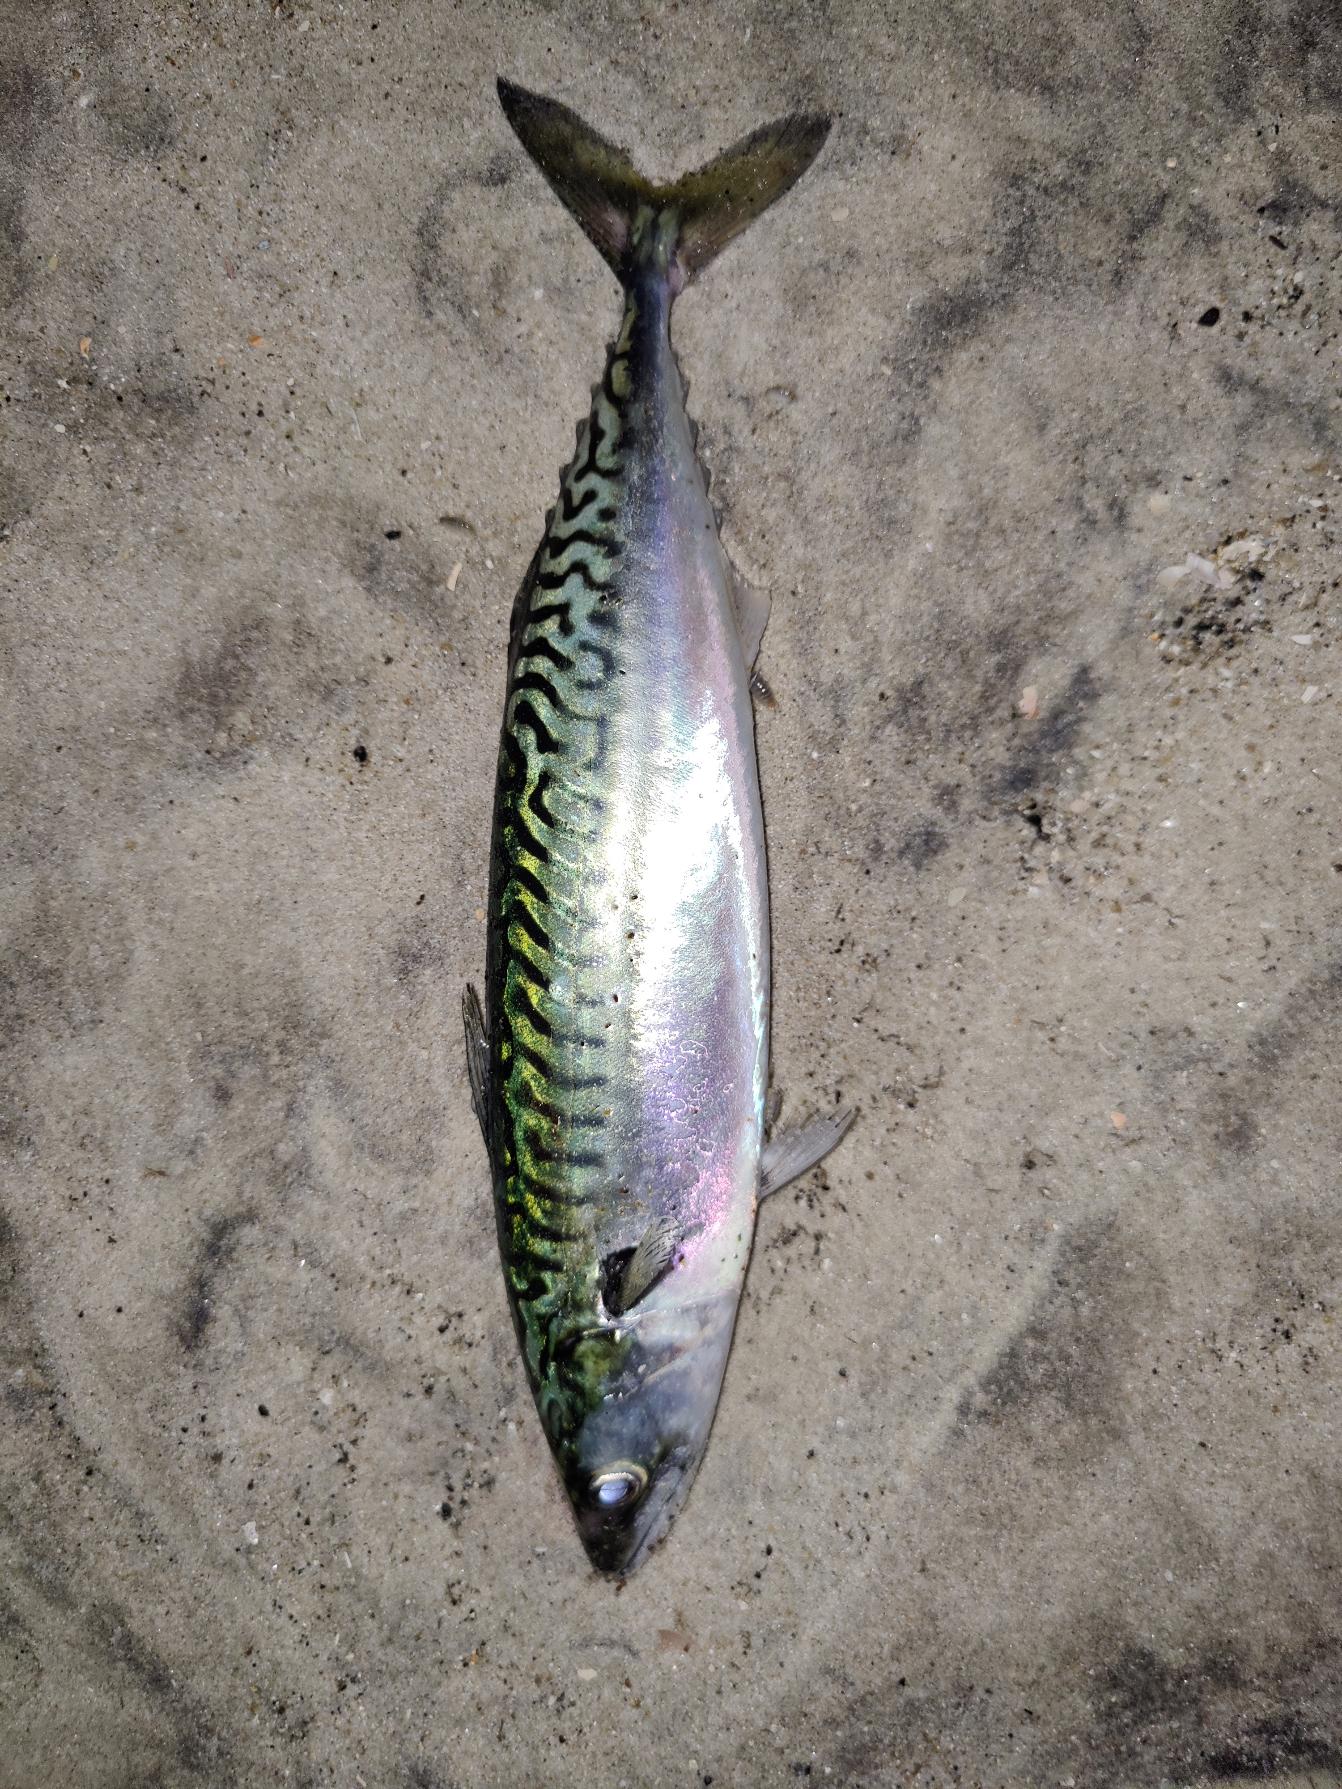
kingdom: Animalia
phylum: Chordata
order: Perciformes
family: Scombridae
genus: Scomber
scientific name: Scomber scombrus
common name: Makrel
